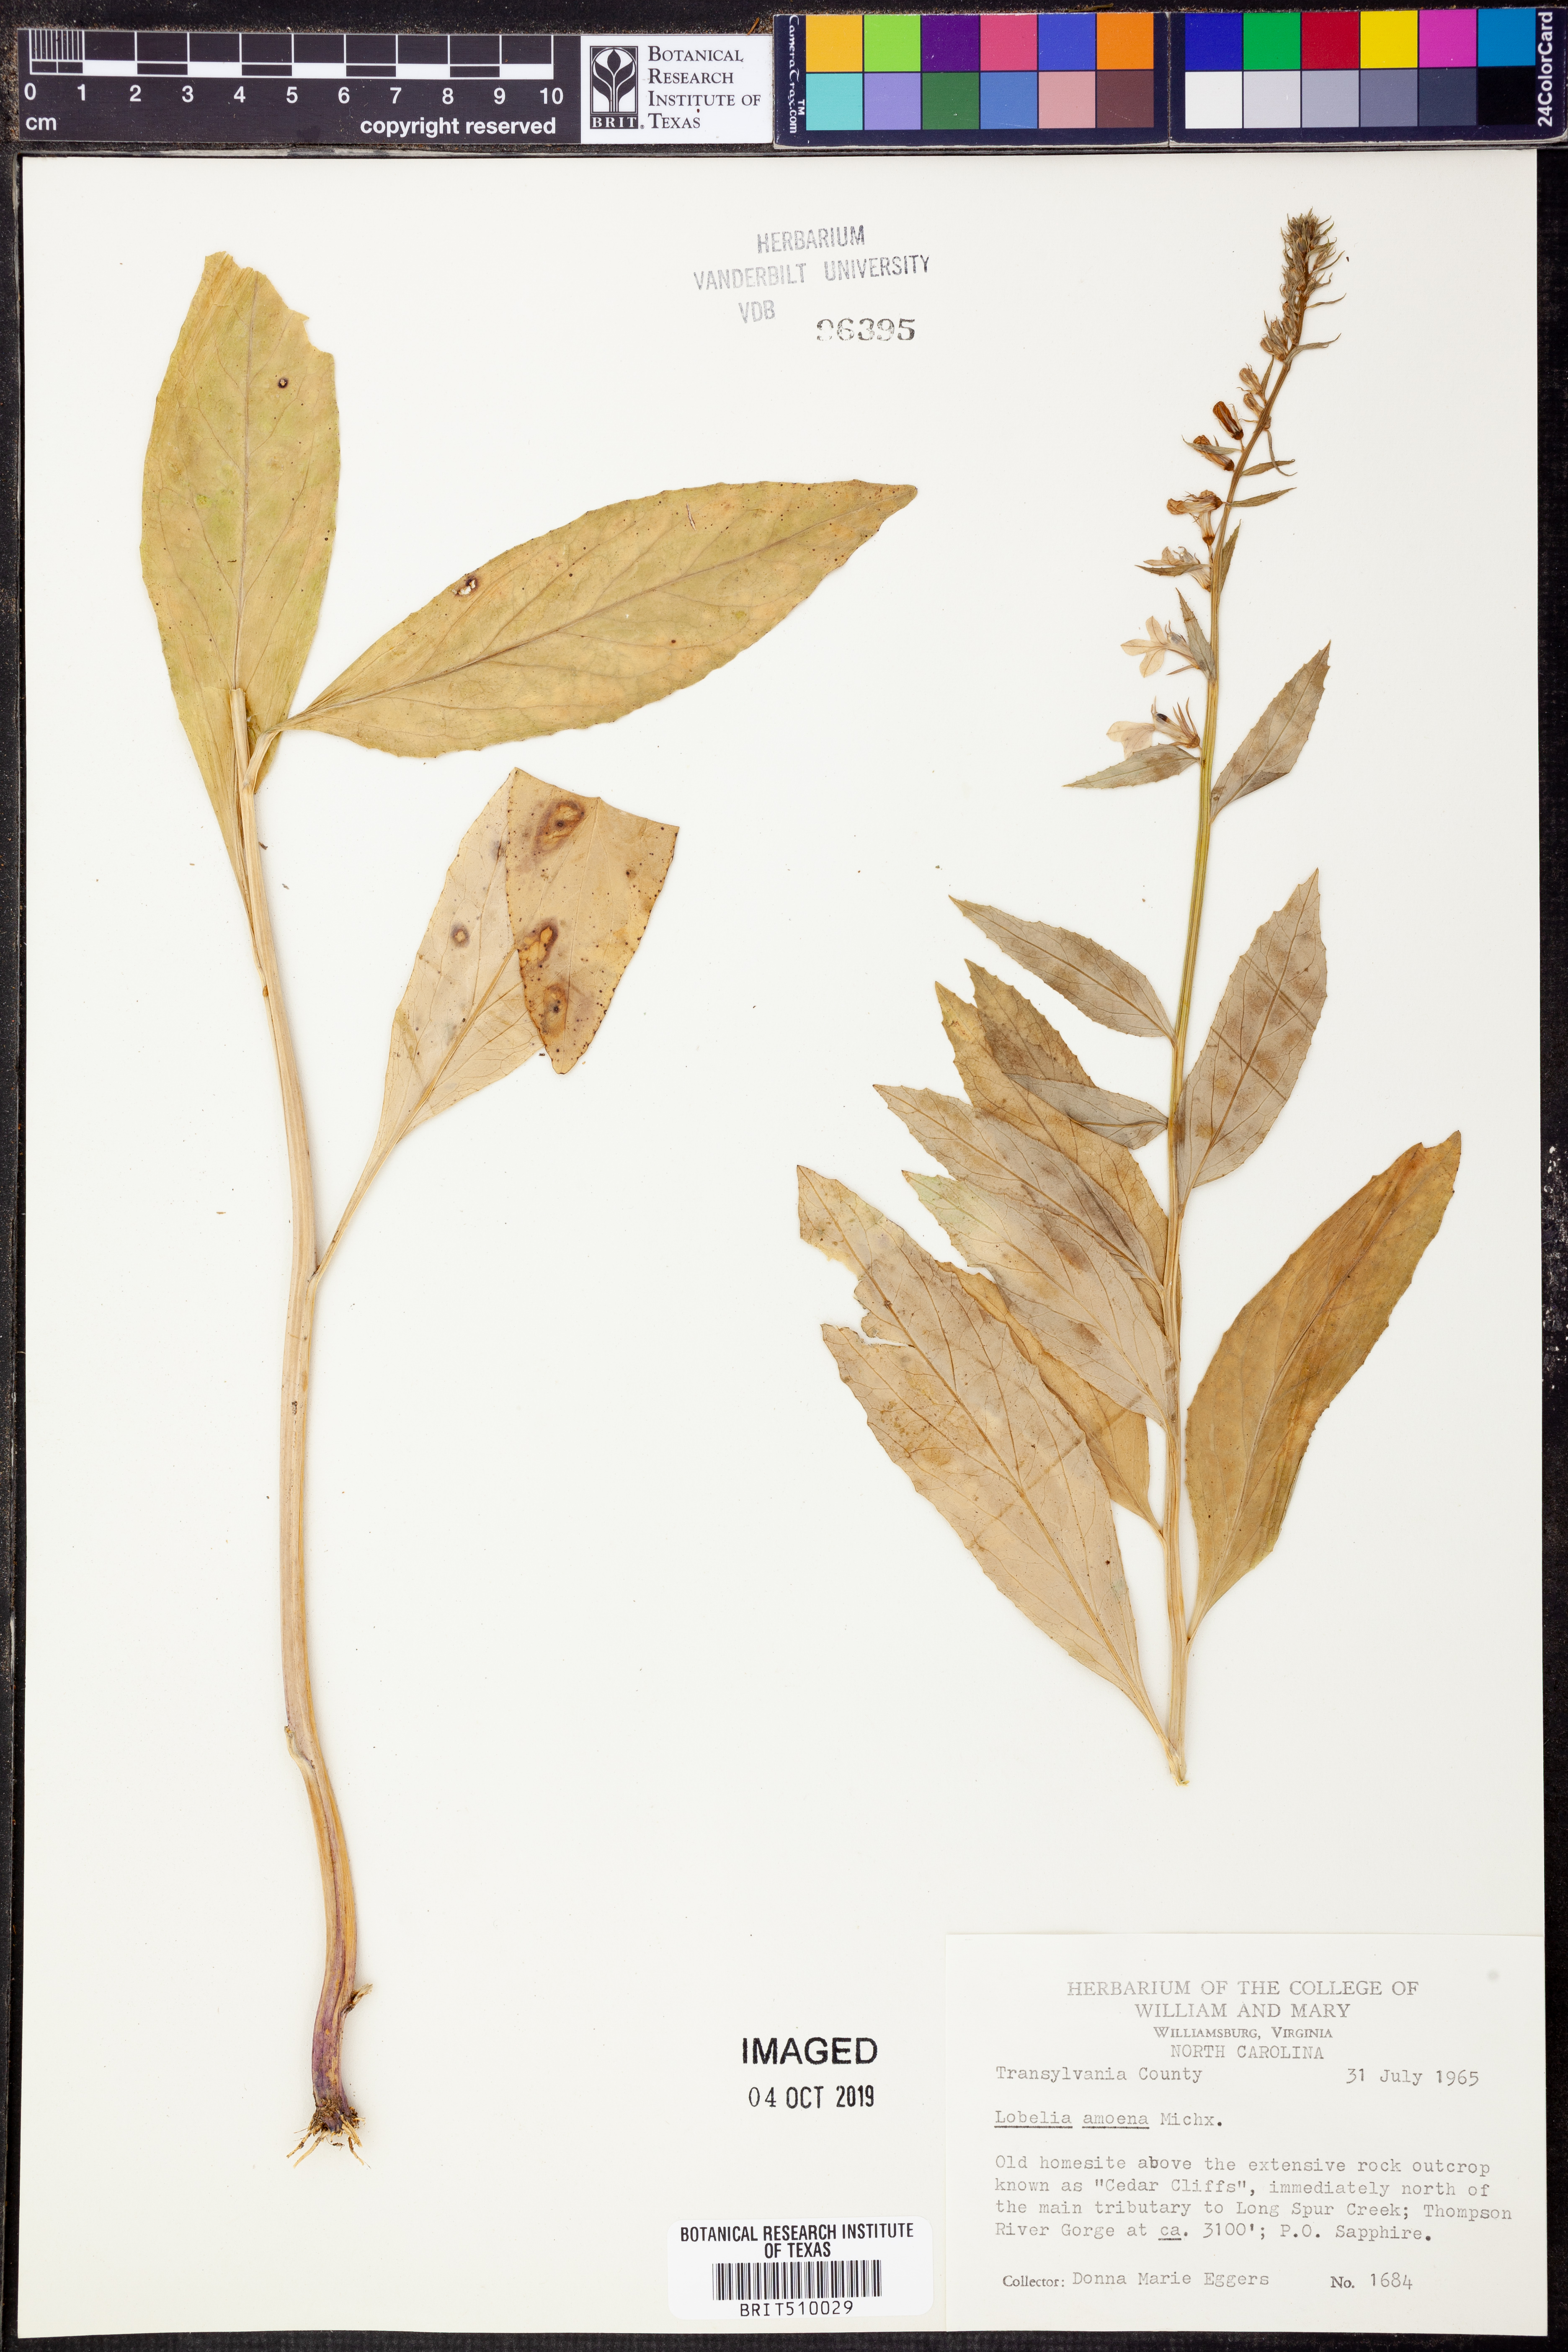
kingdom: Plantae
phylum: Tracheophyta
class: Magnoliopsida
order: Asterales
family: Campanulaceae
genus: Lobelia
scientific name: Lobelia amoena
